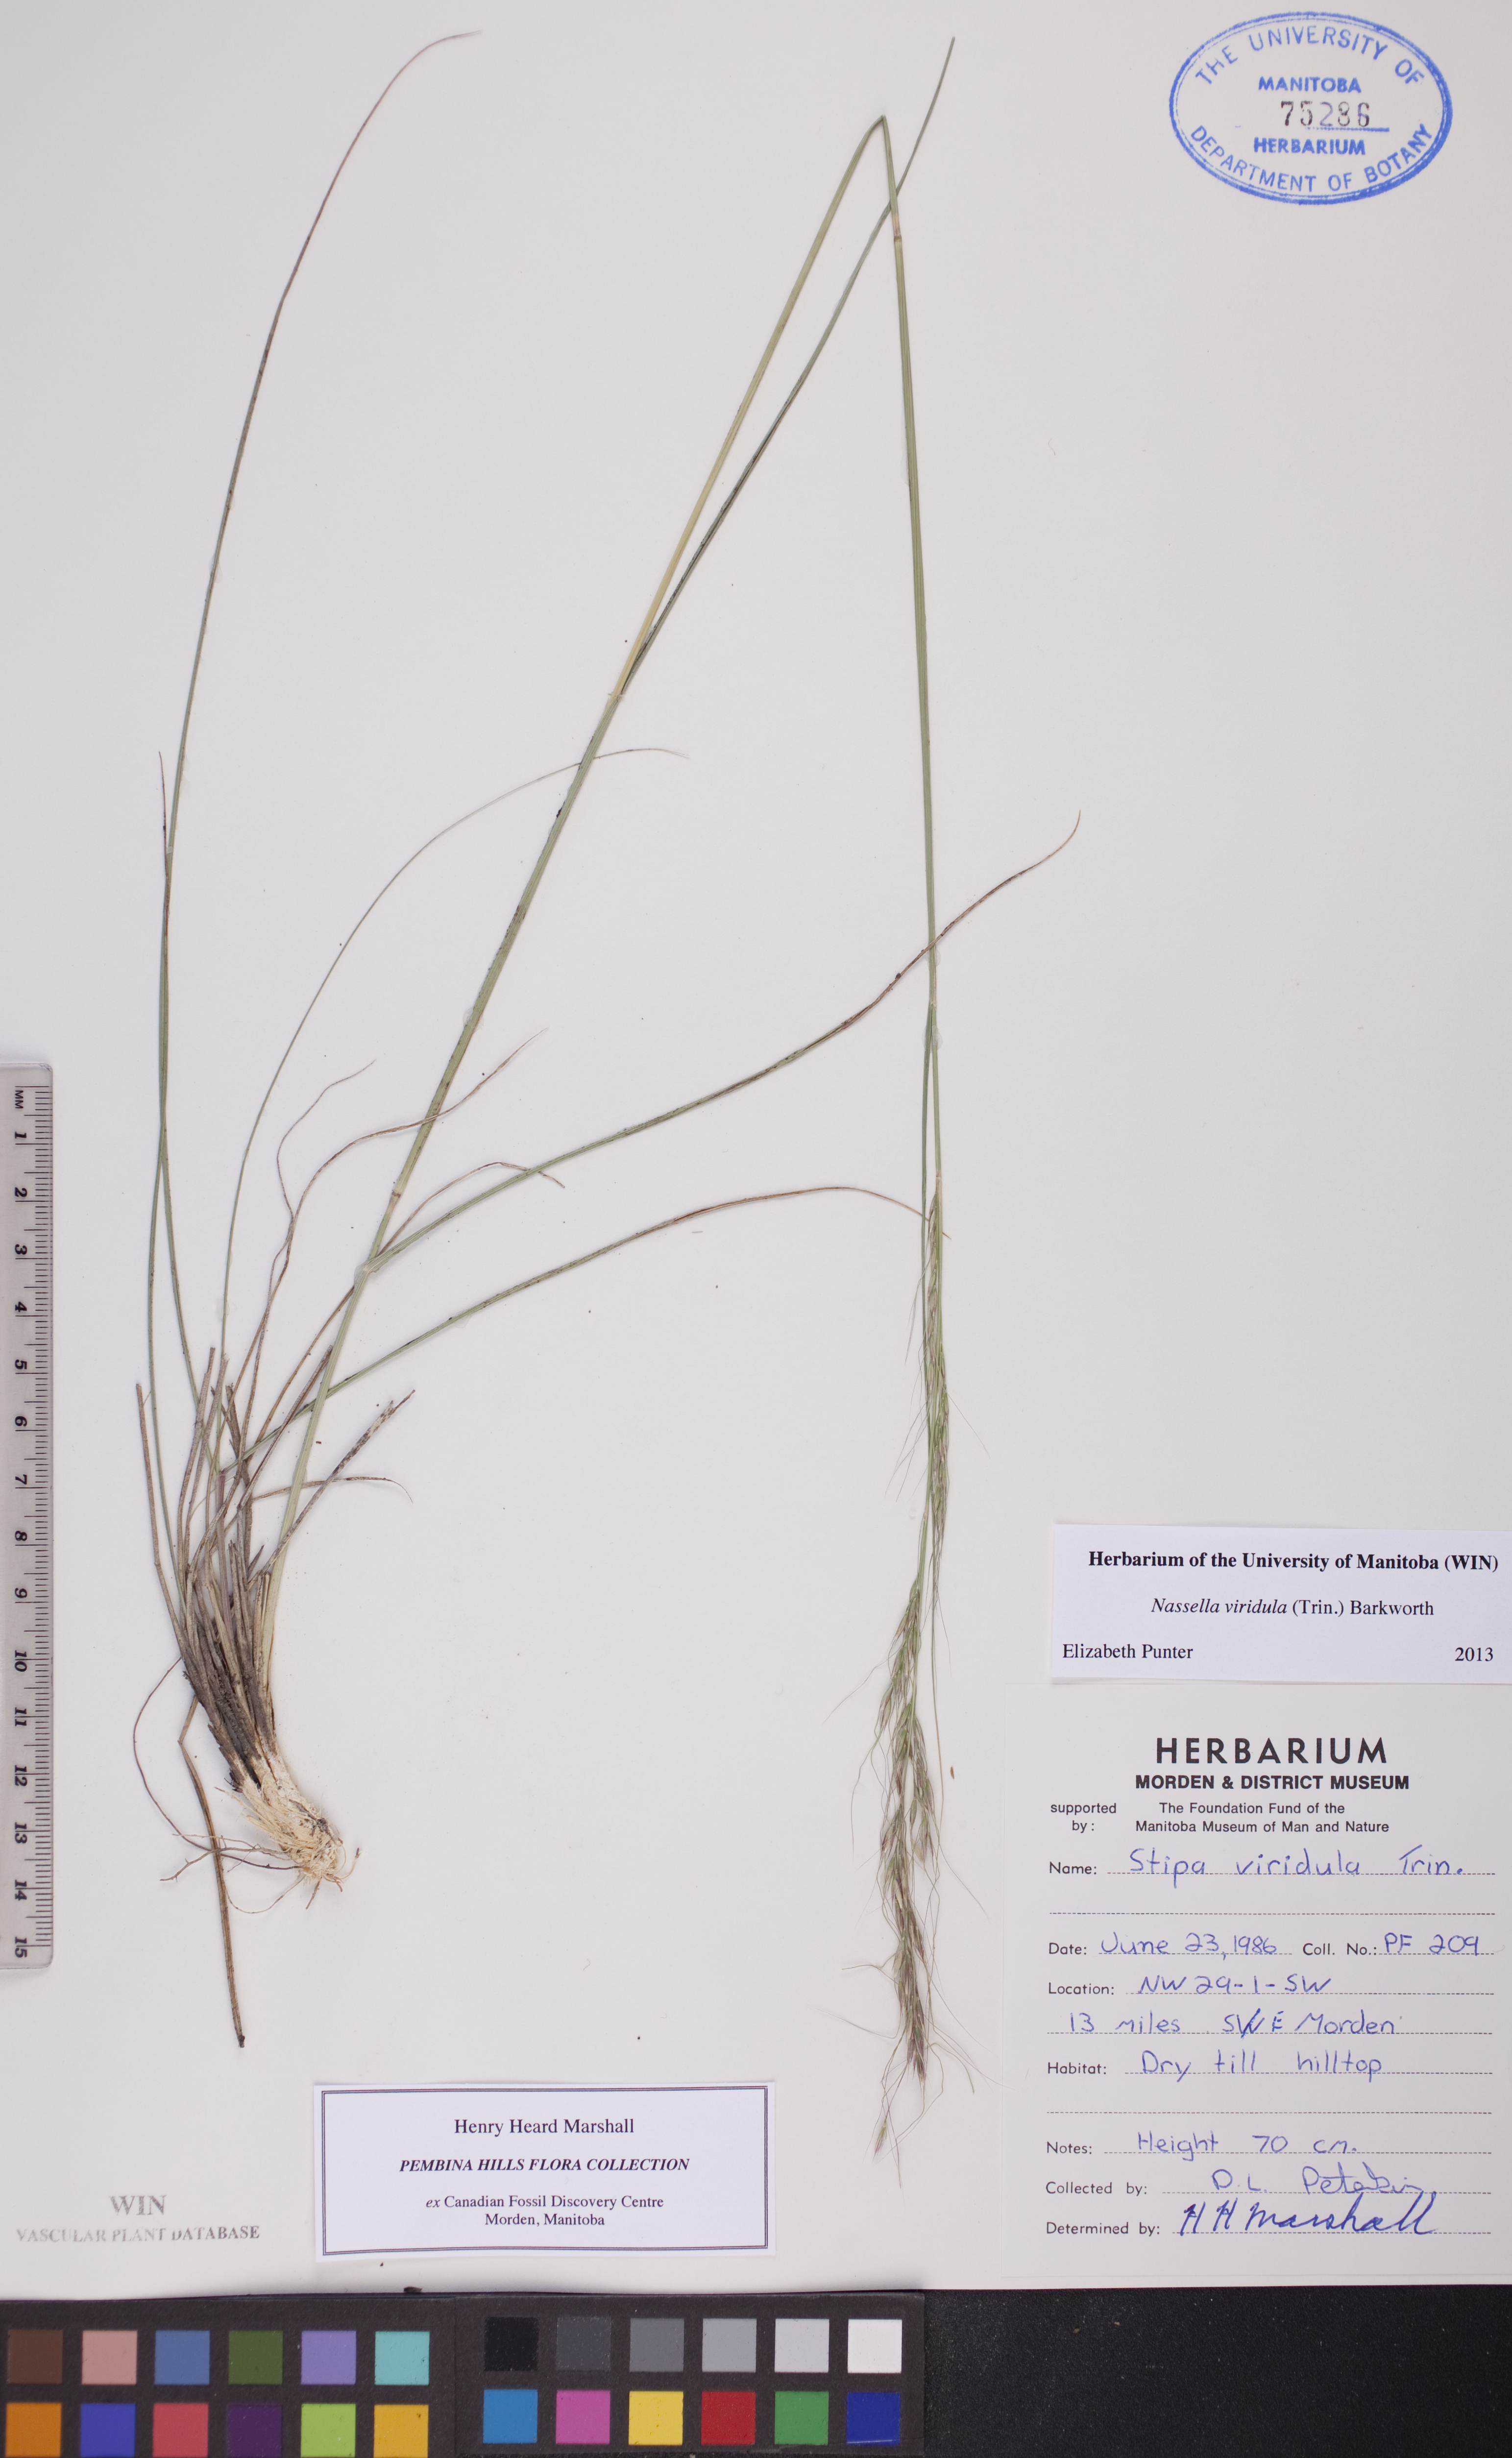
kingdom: Plantae
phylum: Tracheophyta
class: Liliopsida
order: Poales
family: Poaceae
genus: Nassella
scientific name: Nassella viridula
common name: Green needlegrass
